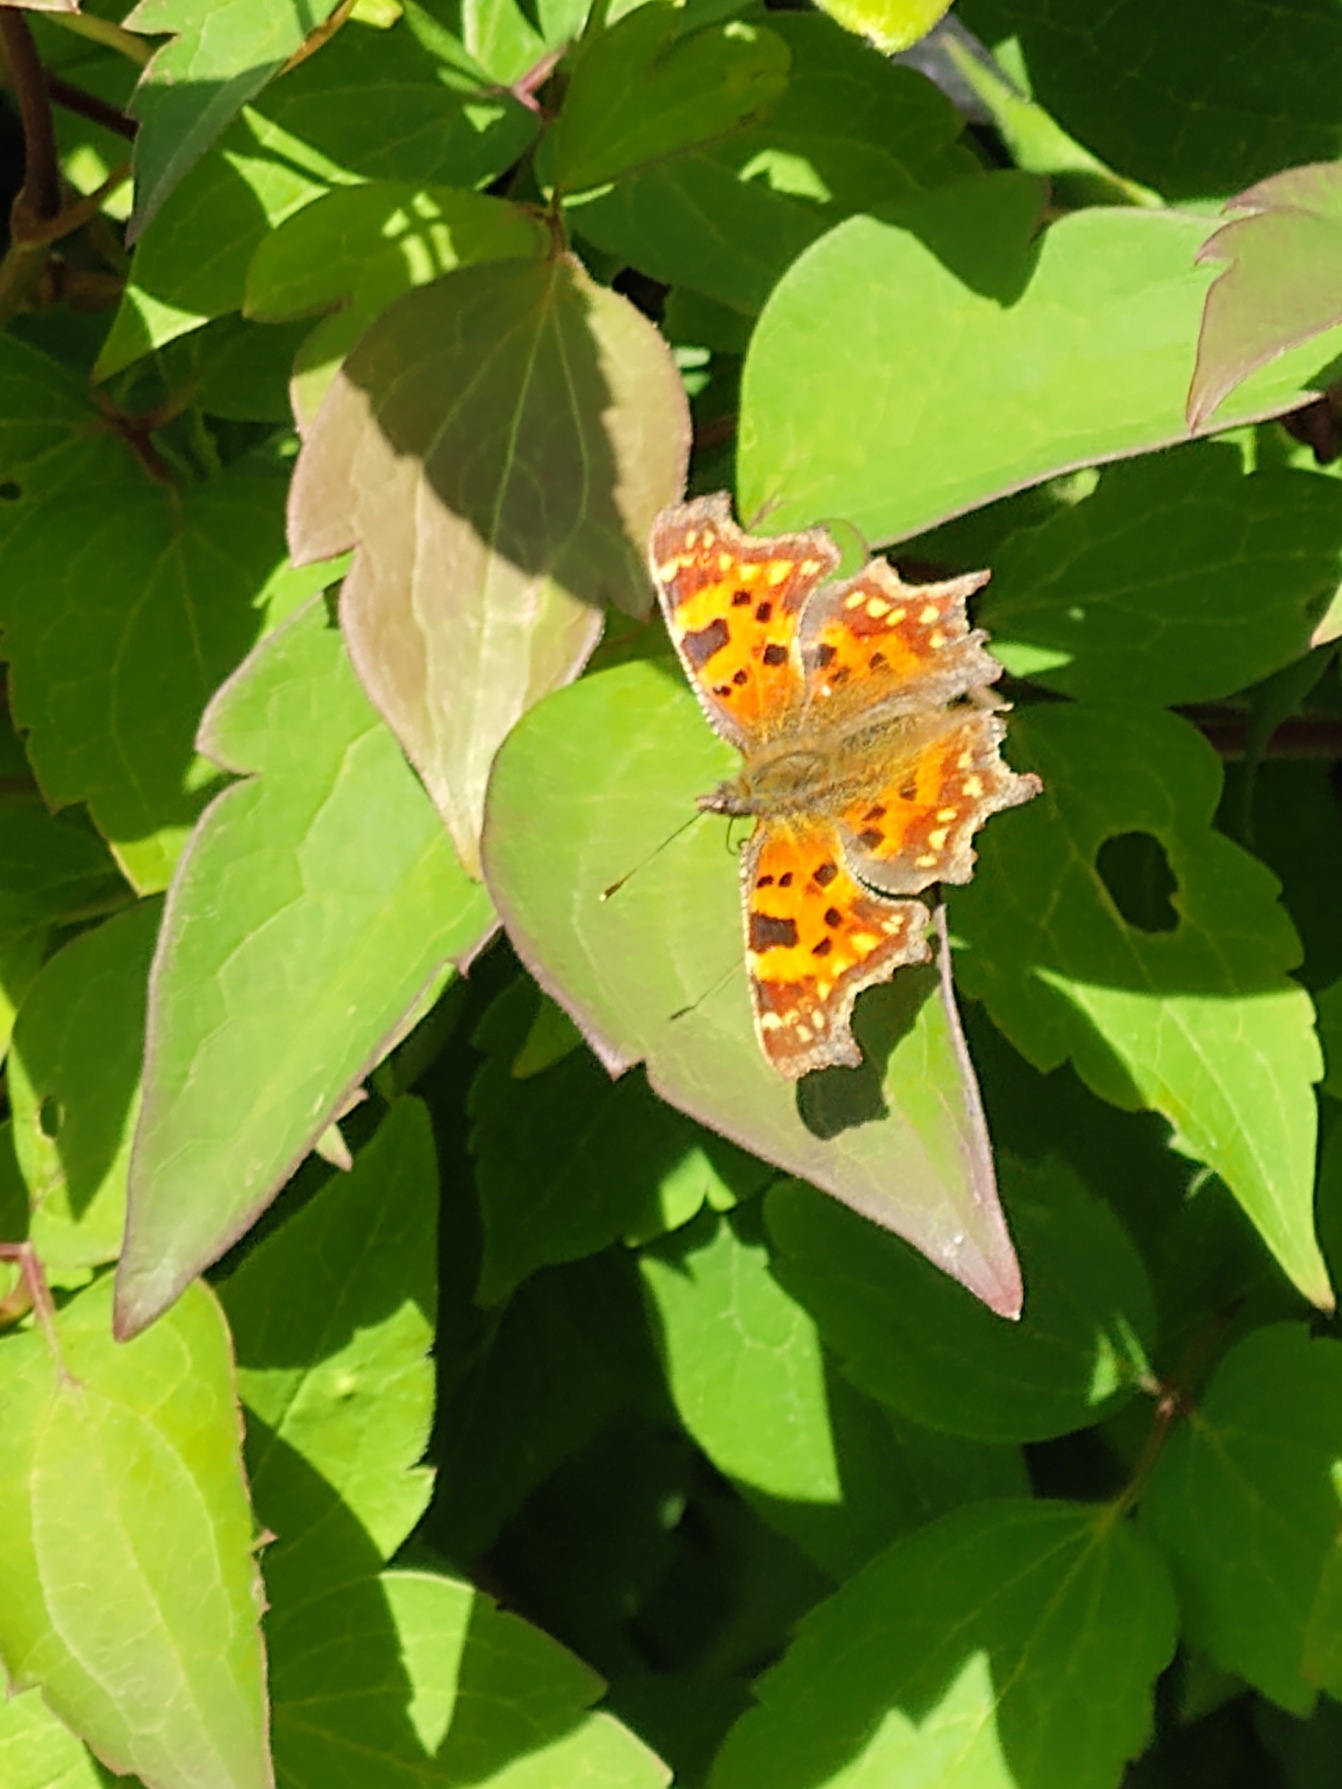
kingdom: Animalia
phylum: Arthropoda
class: Insecta
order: Lepidoptera
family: Nymphalidae
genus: Polygonia
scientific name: Polygonia c-album
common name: Det hvide C
